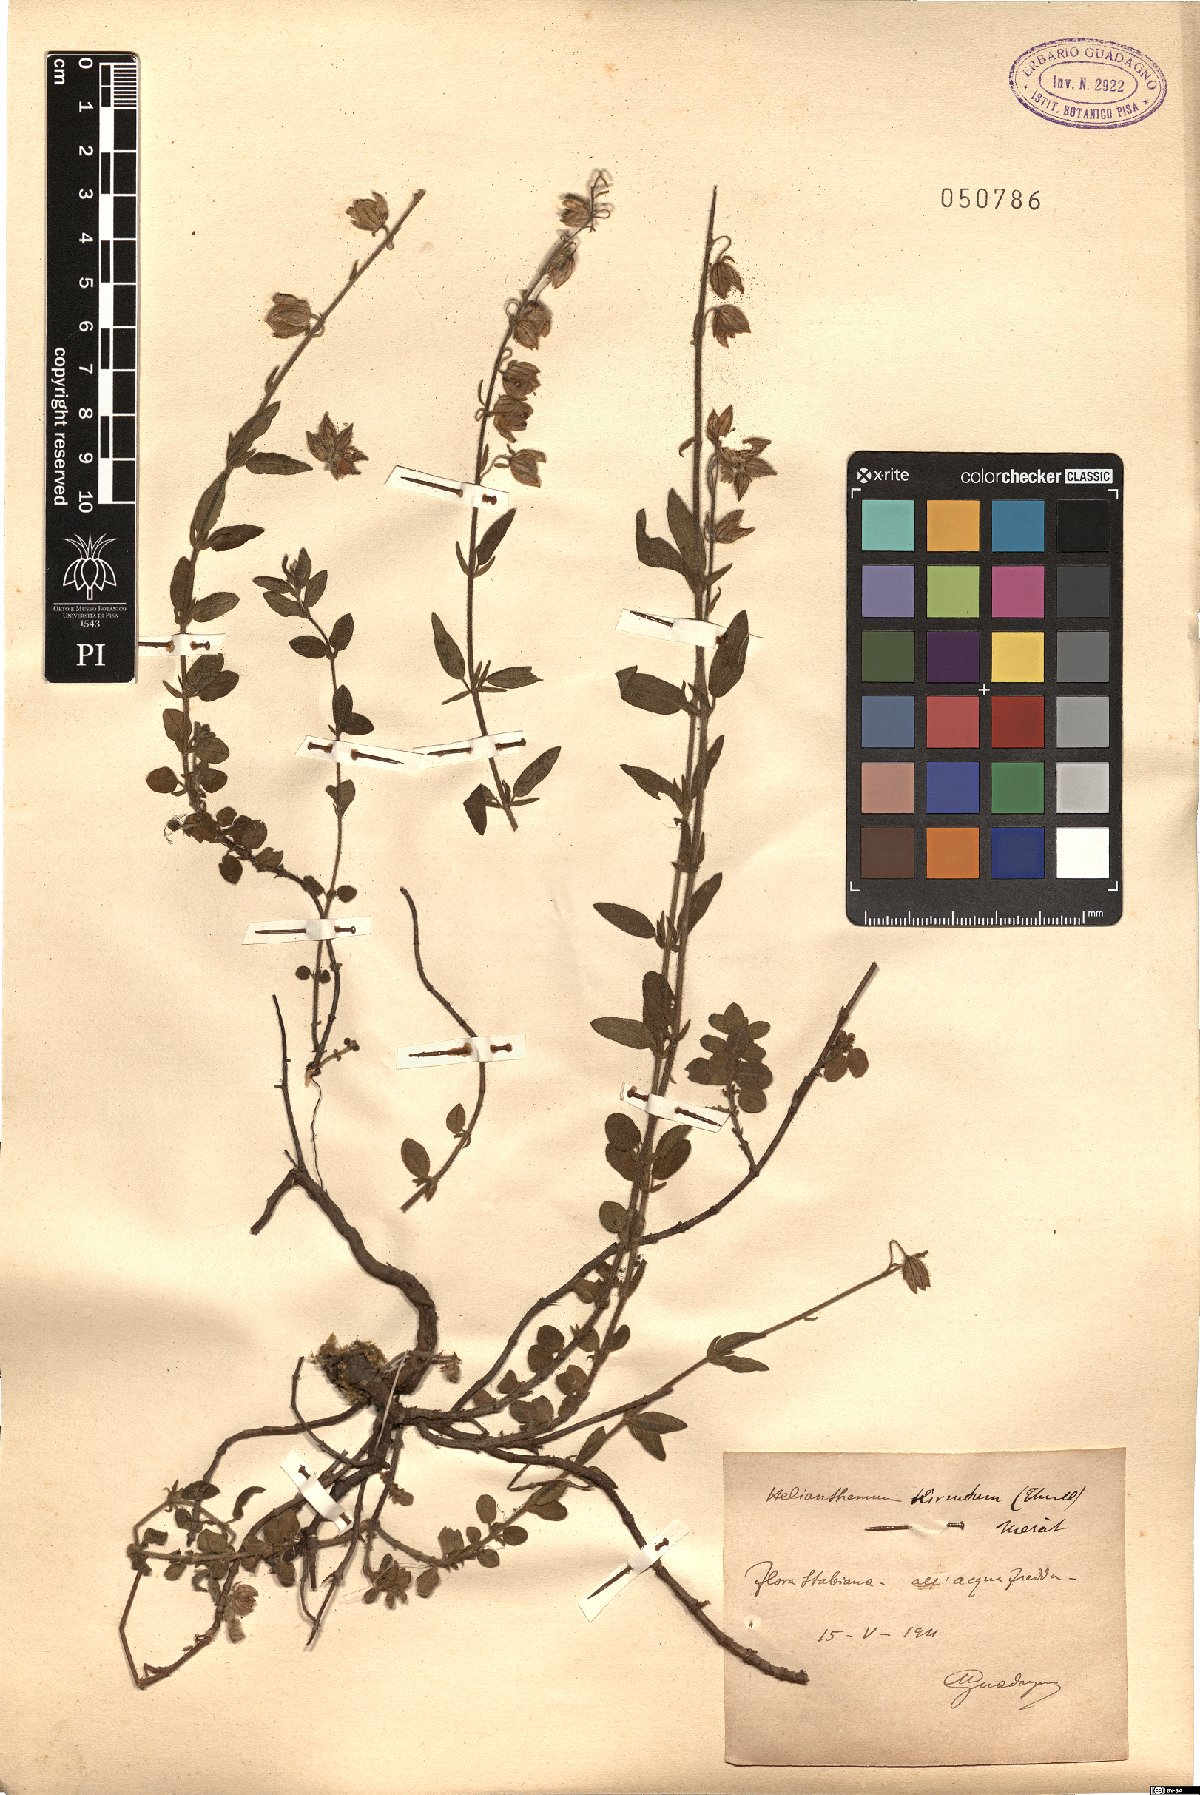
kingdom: Plantae
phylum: Tracheophyta
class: Magnoliopsida
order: Malvales
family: Cistaceae
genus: Helianthemum
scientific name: Helianthemum nummularium
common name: Common rock-rose
